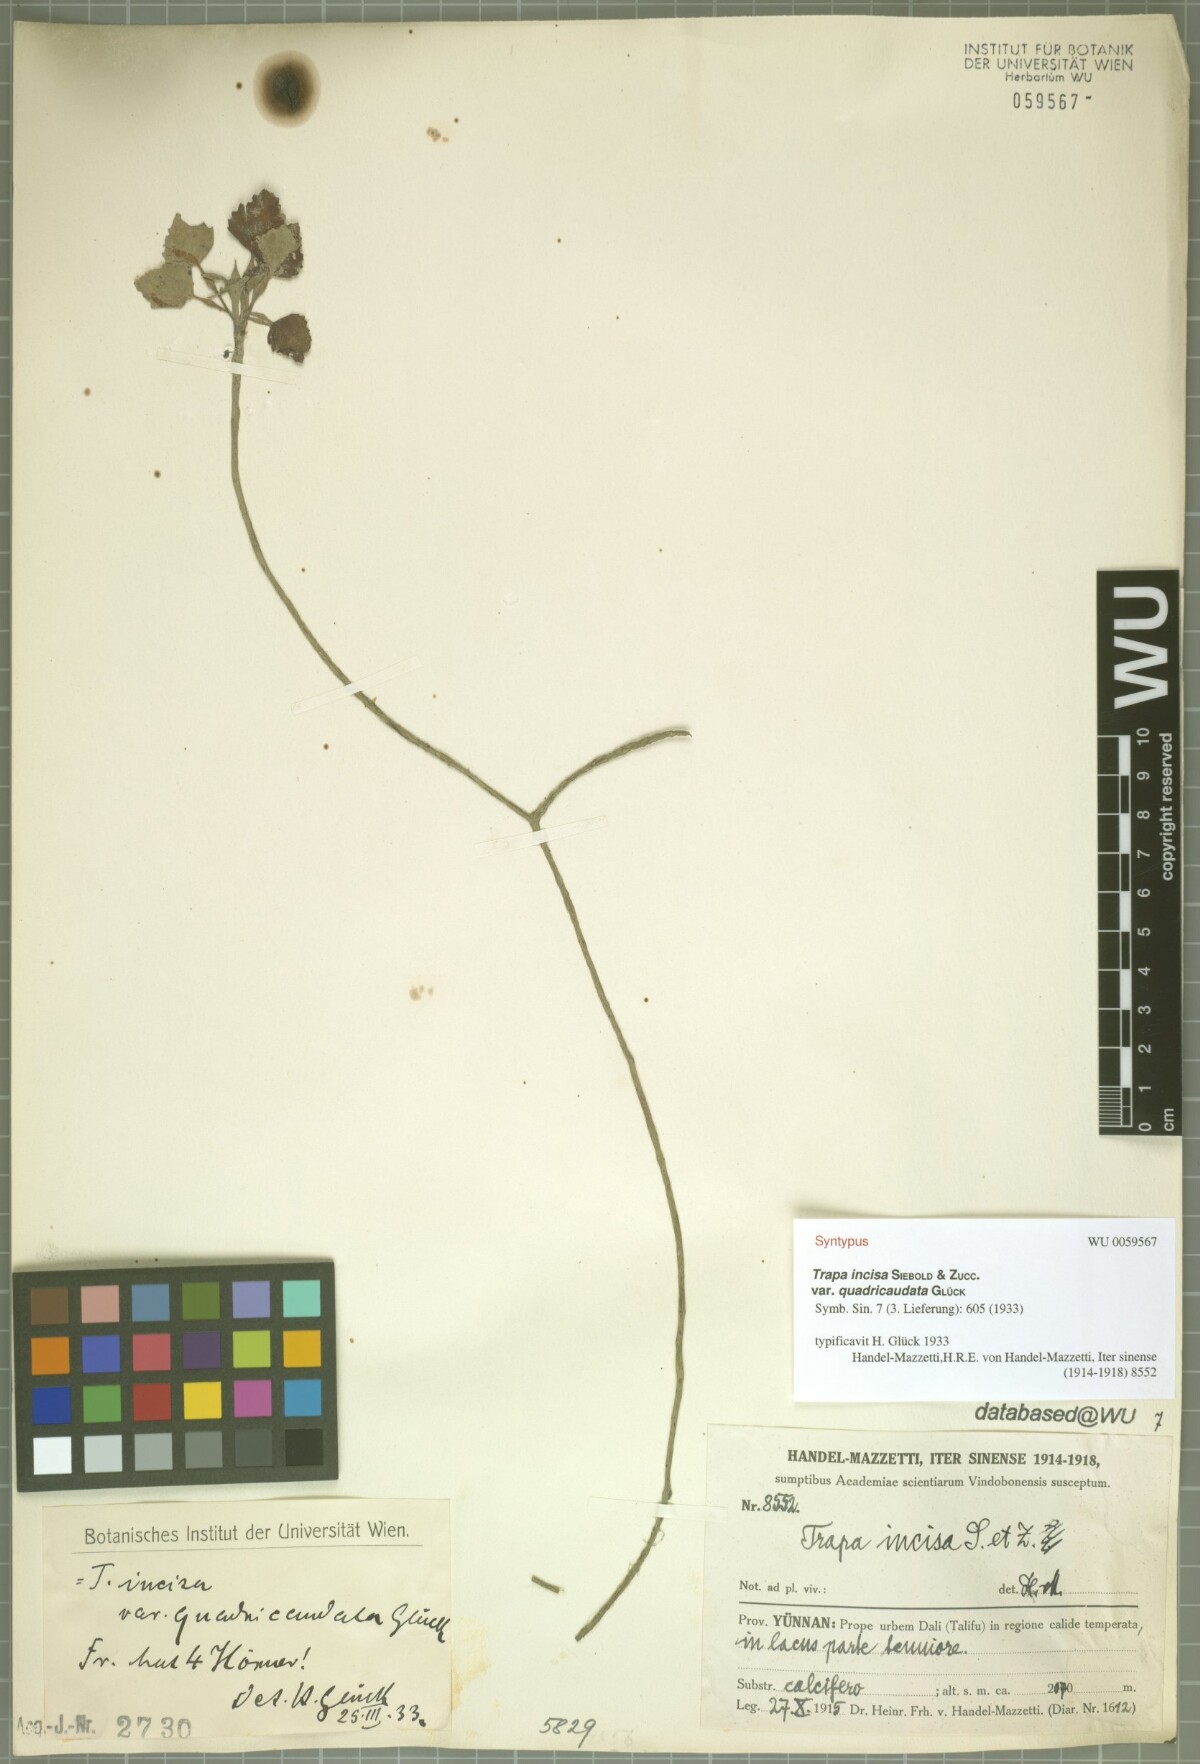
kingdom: Plantae
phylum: Tracheophyta
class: Magnoliopsida
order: Myrtales
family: Lythraceae
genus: Trapa
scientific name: Trapa natans
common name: Water chestnut
